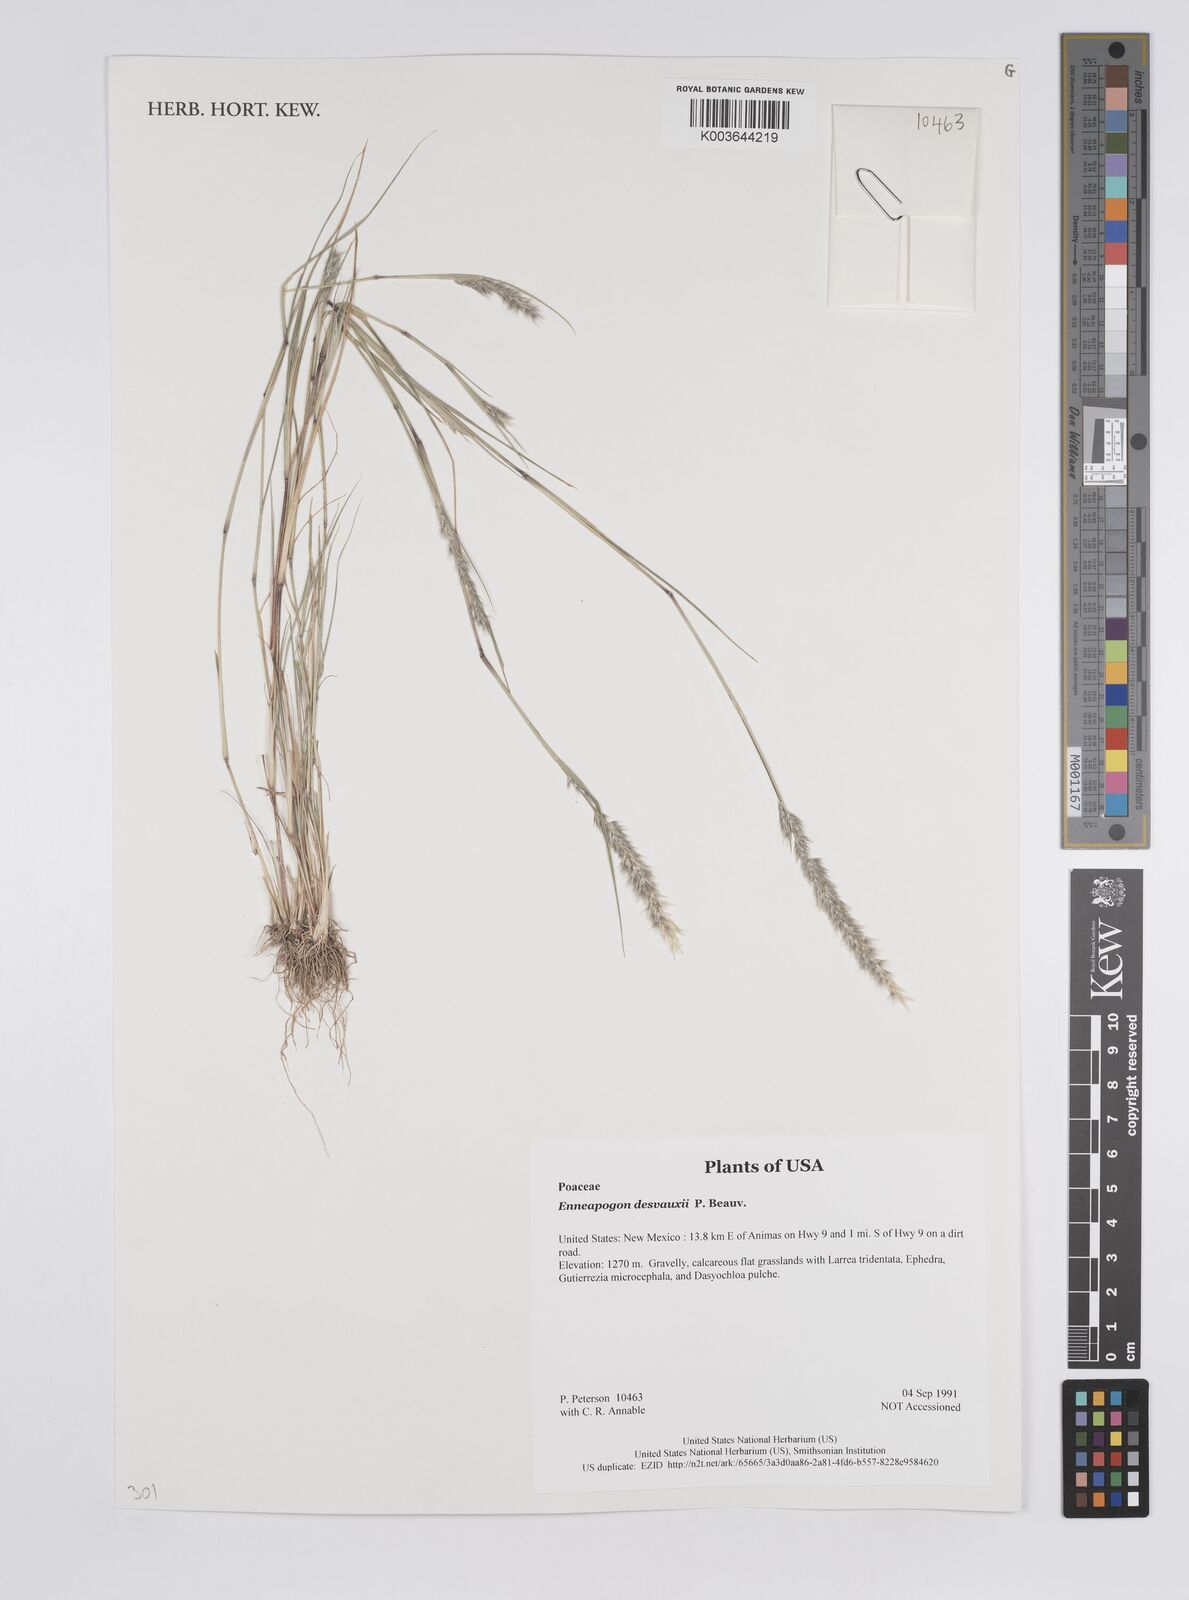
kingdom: Plantae
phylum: Tracheophyta
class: Liliopsida
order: Poales
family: Poaceae
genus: Enneapogon
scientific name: Enneapogon desvauxii
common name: Feather pappus grass
